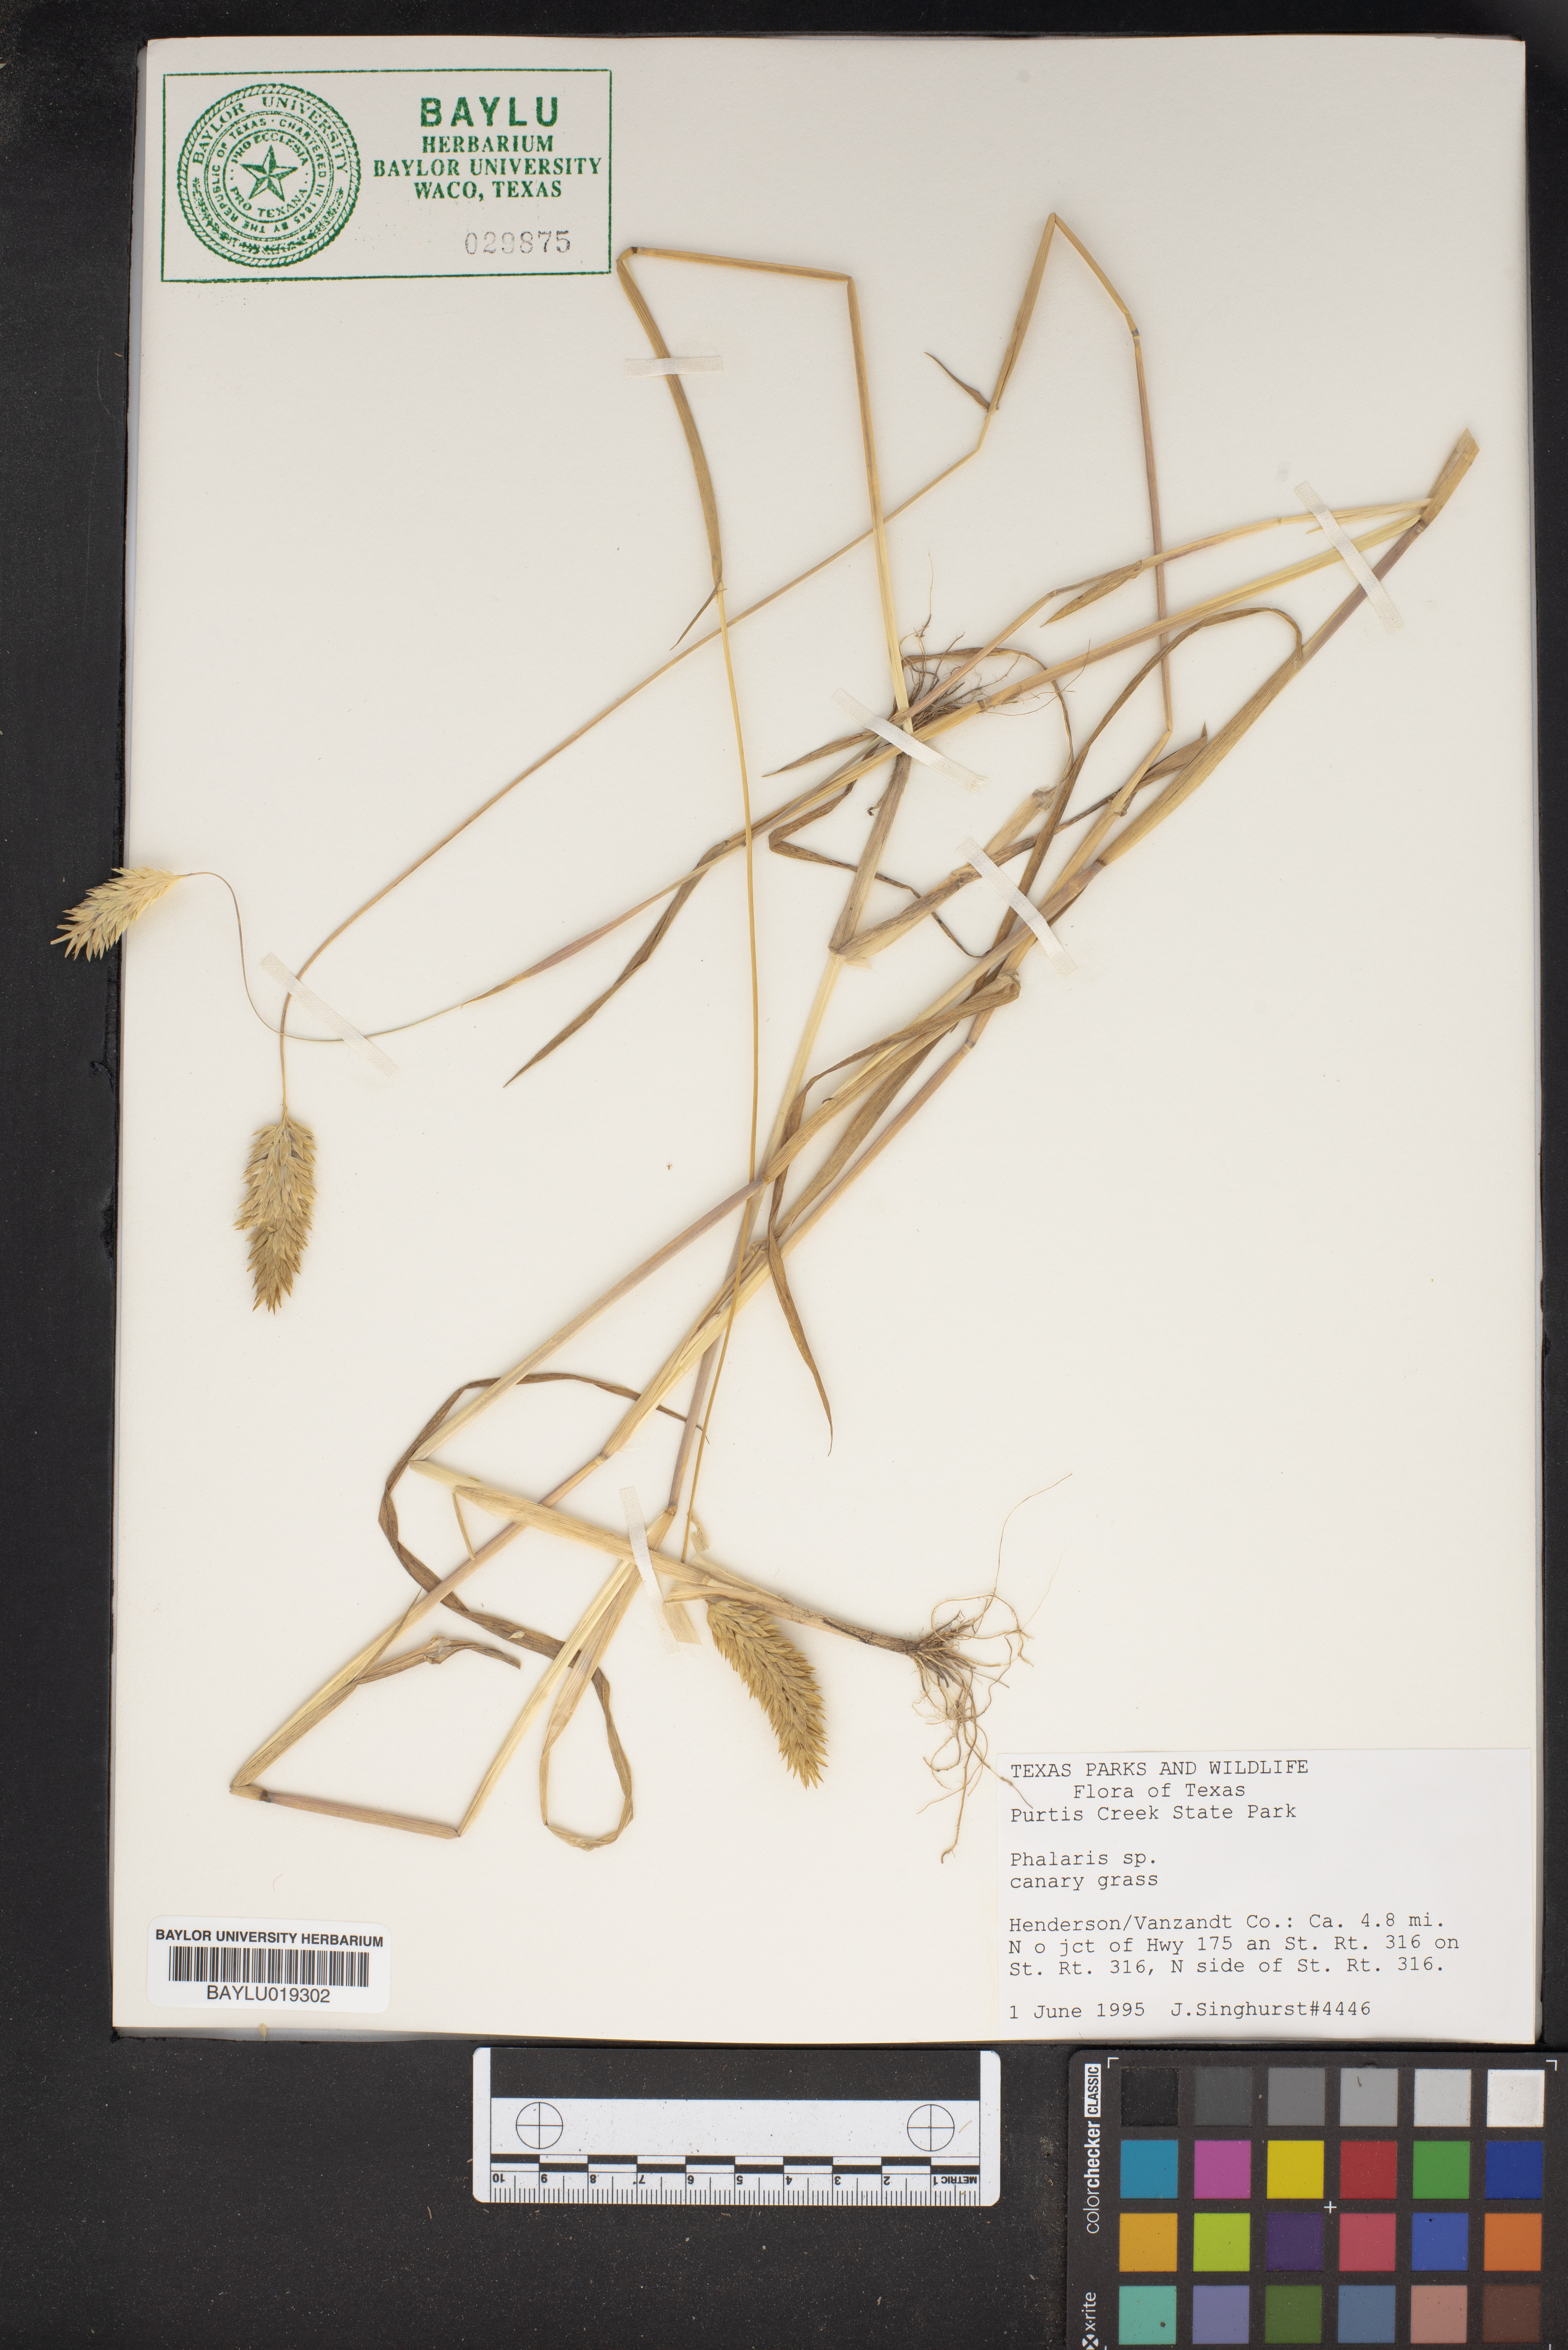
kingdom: Plantae
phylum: Tracheophyta
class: Liliopsida
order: Poales
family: Poaceae
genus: Phalaris
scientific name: Phalaris
